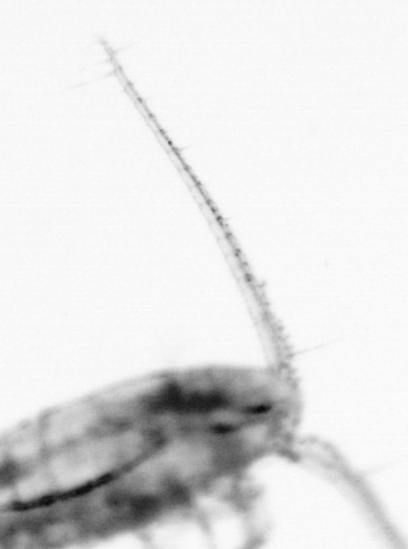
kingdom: Animalia
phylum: Arthropoda
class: Copepoda
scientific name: Copepoda
